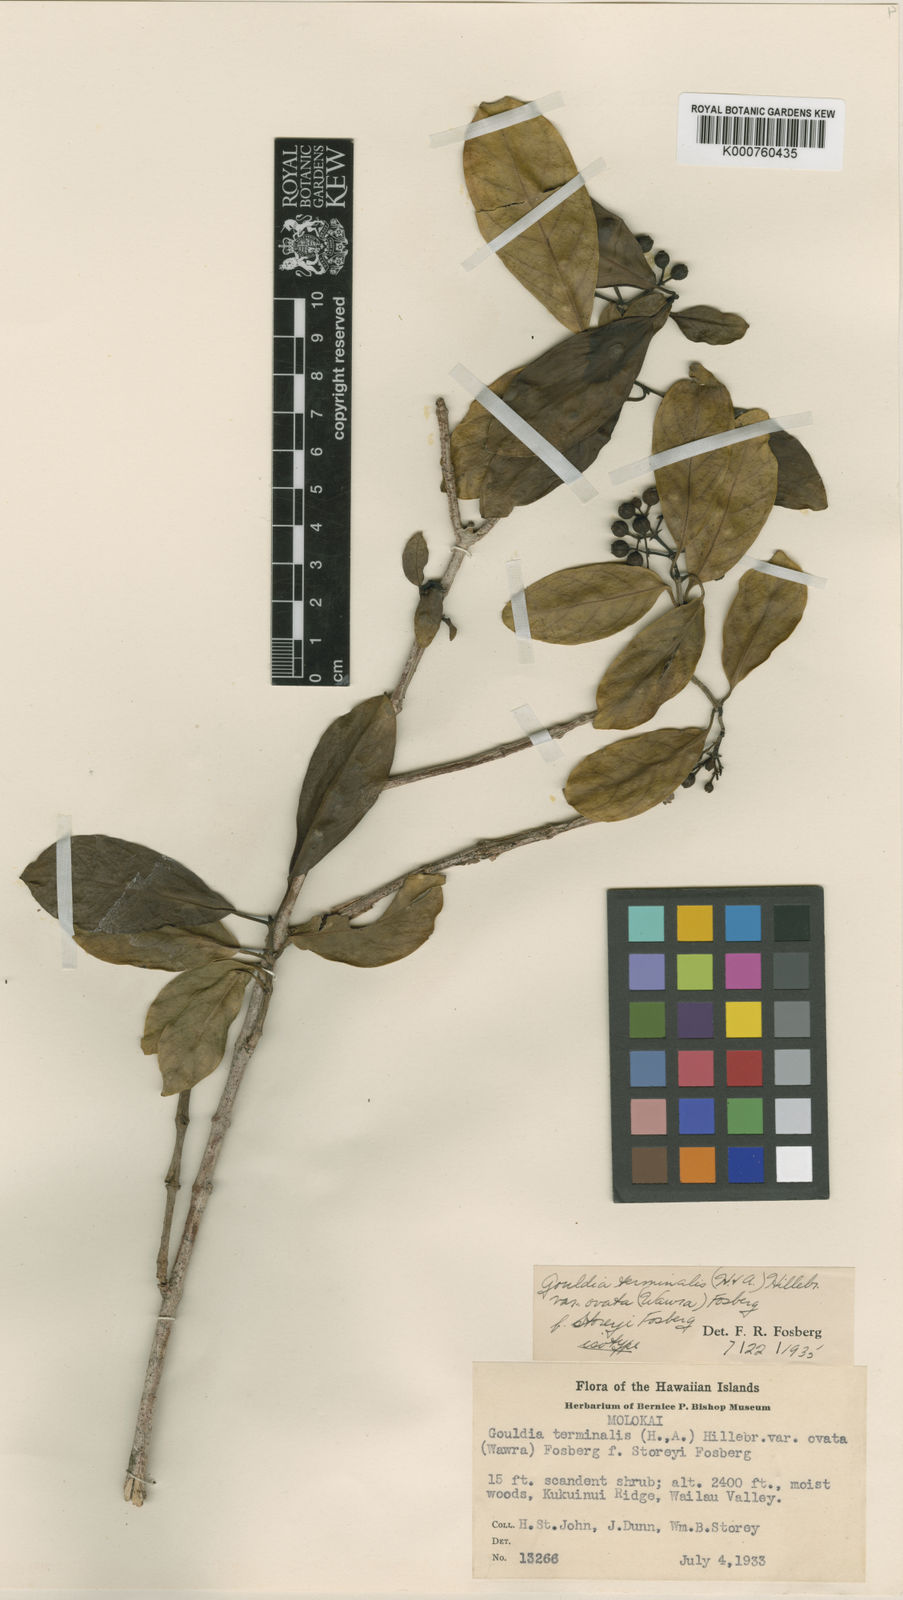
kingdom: Plantae
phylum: Tracheophyta
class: Magnoliopsida
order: Gentianales
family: Rubiaceae
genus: Kadua
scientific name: Kadua affinis
